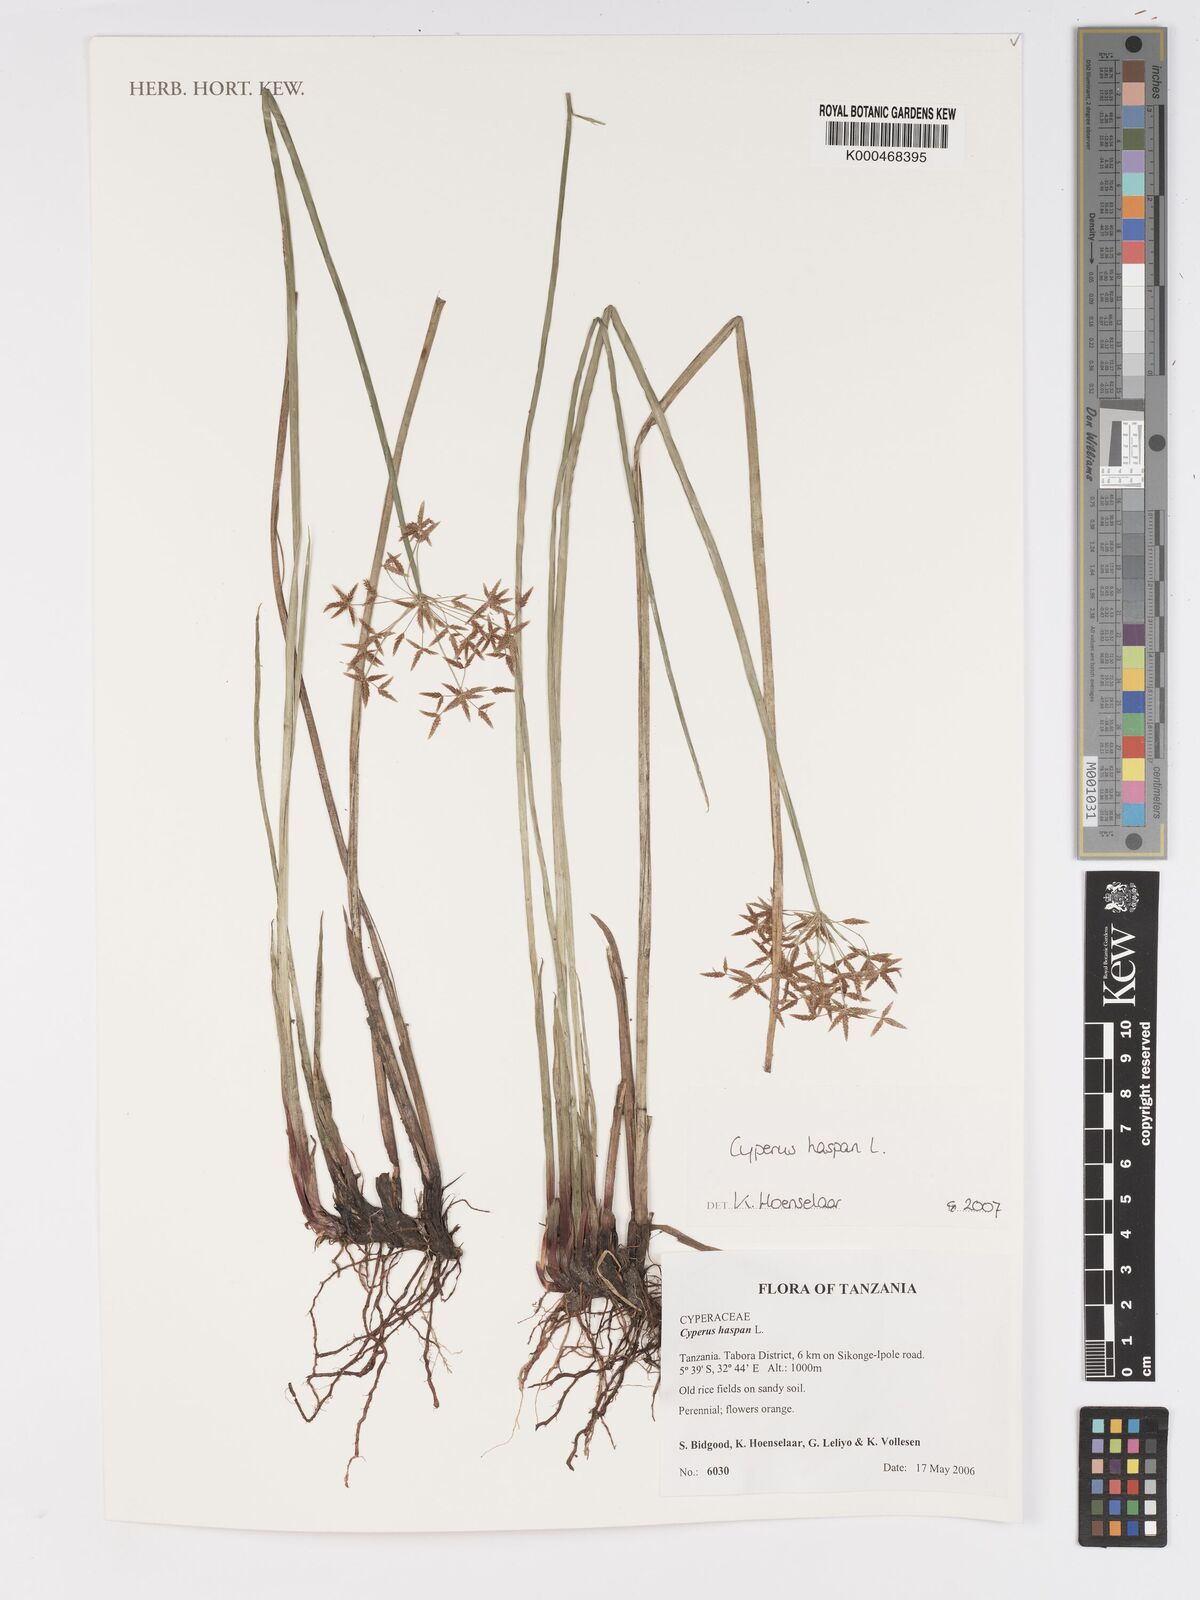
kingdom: Plantae
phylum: Tracheophyta
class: Liliopsida
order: Poales
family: Cyperaceae
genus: Cyperus
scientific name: Cyperus haspan
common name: Haspan flatsedge
